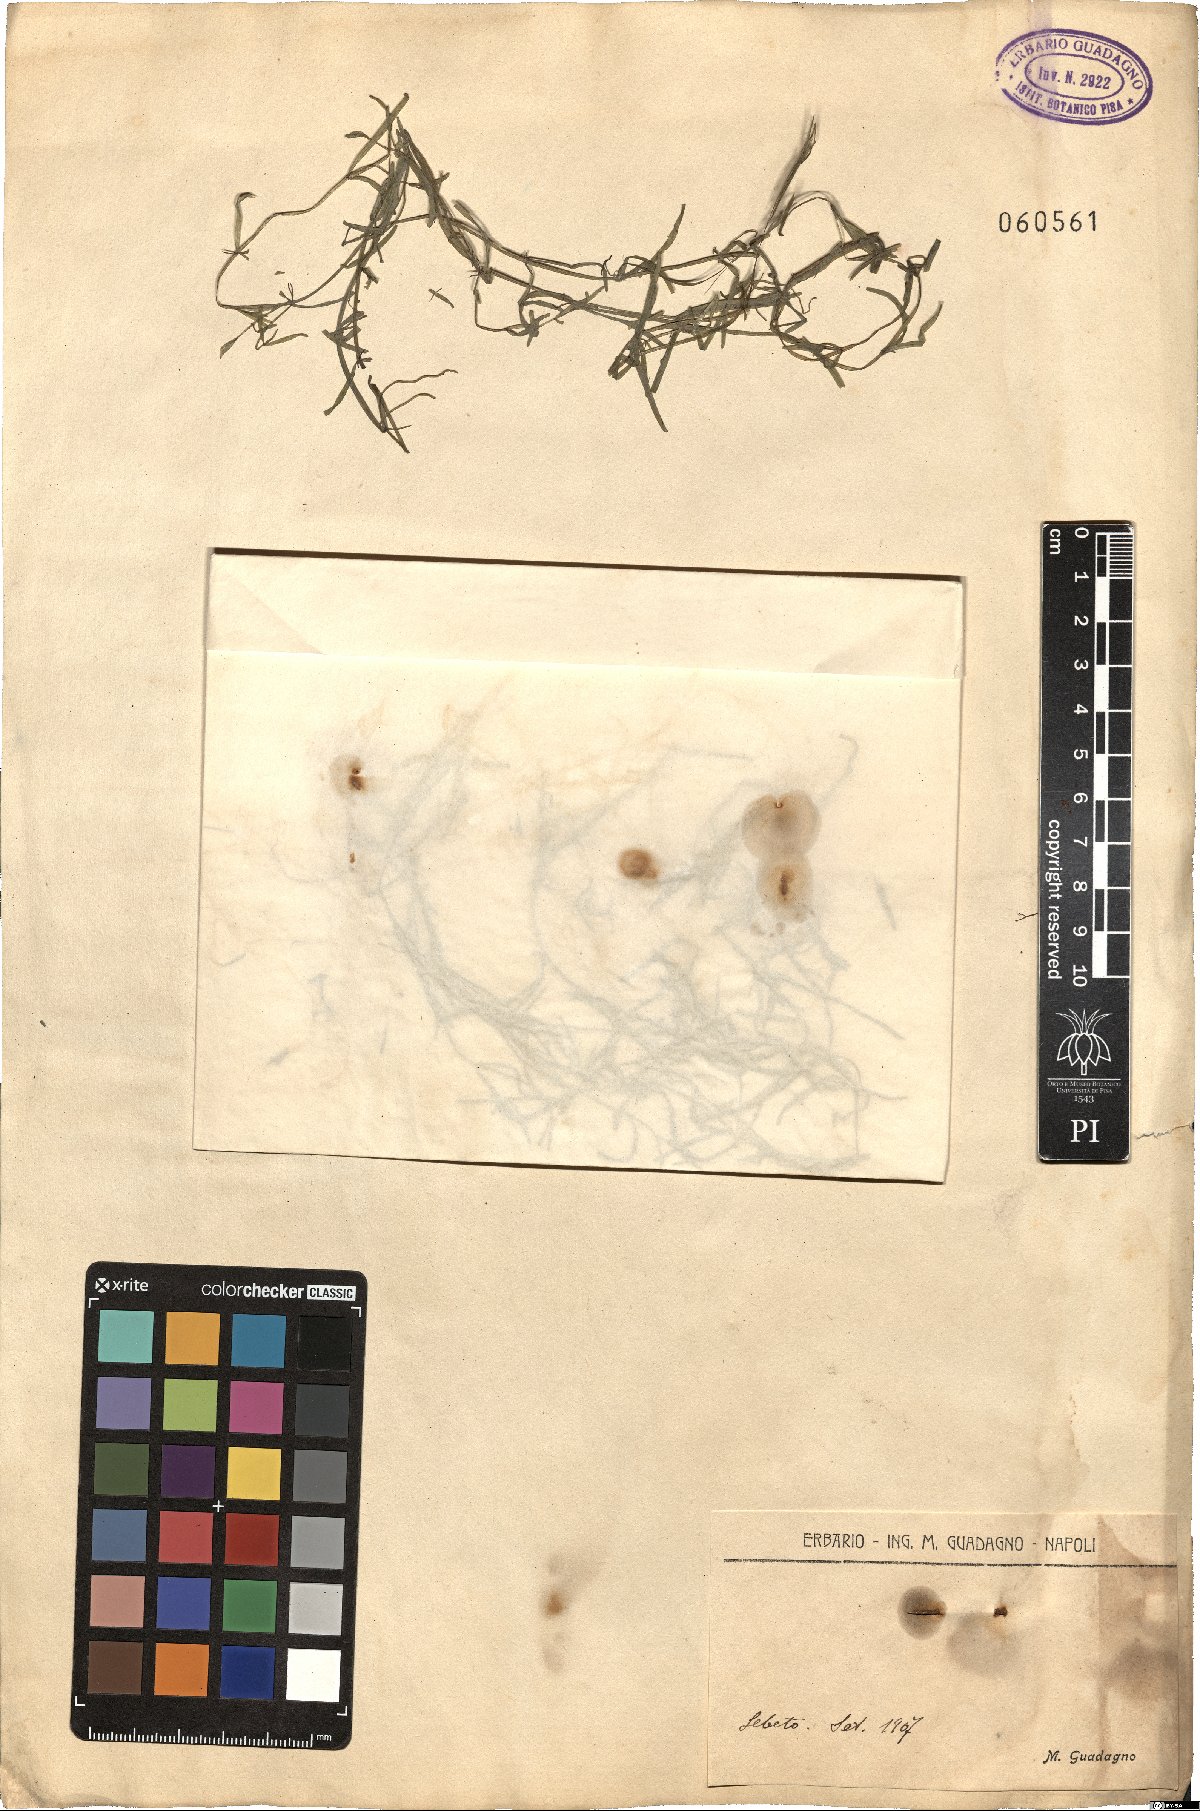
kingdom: Plantae
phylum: Tracheophyta
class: Liliopsida
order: Alismatales
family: Potamogetonaceae
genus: Zannichellia
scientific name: Zannichellia
